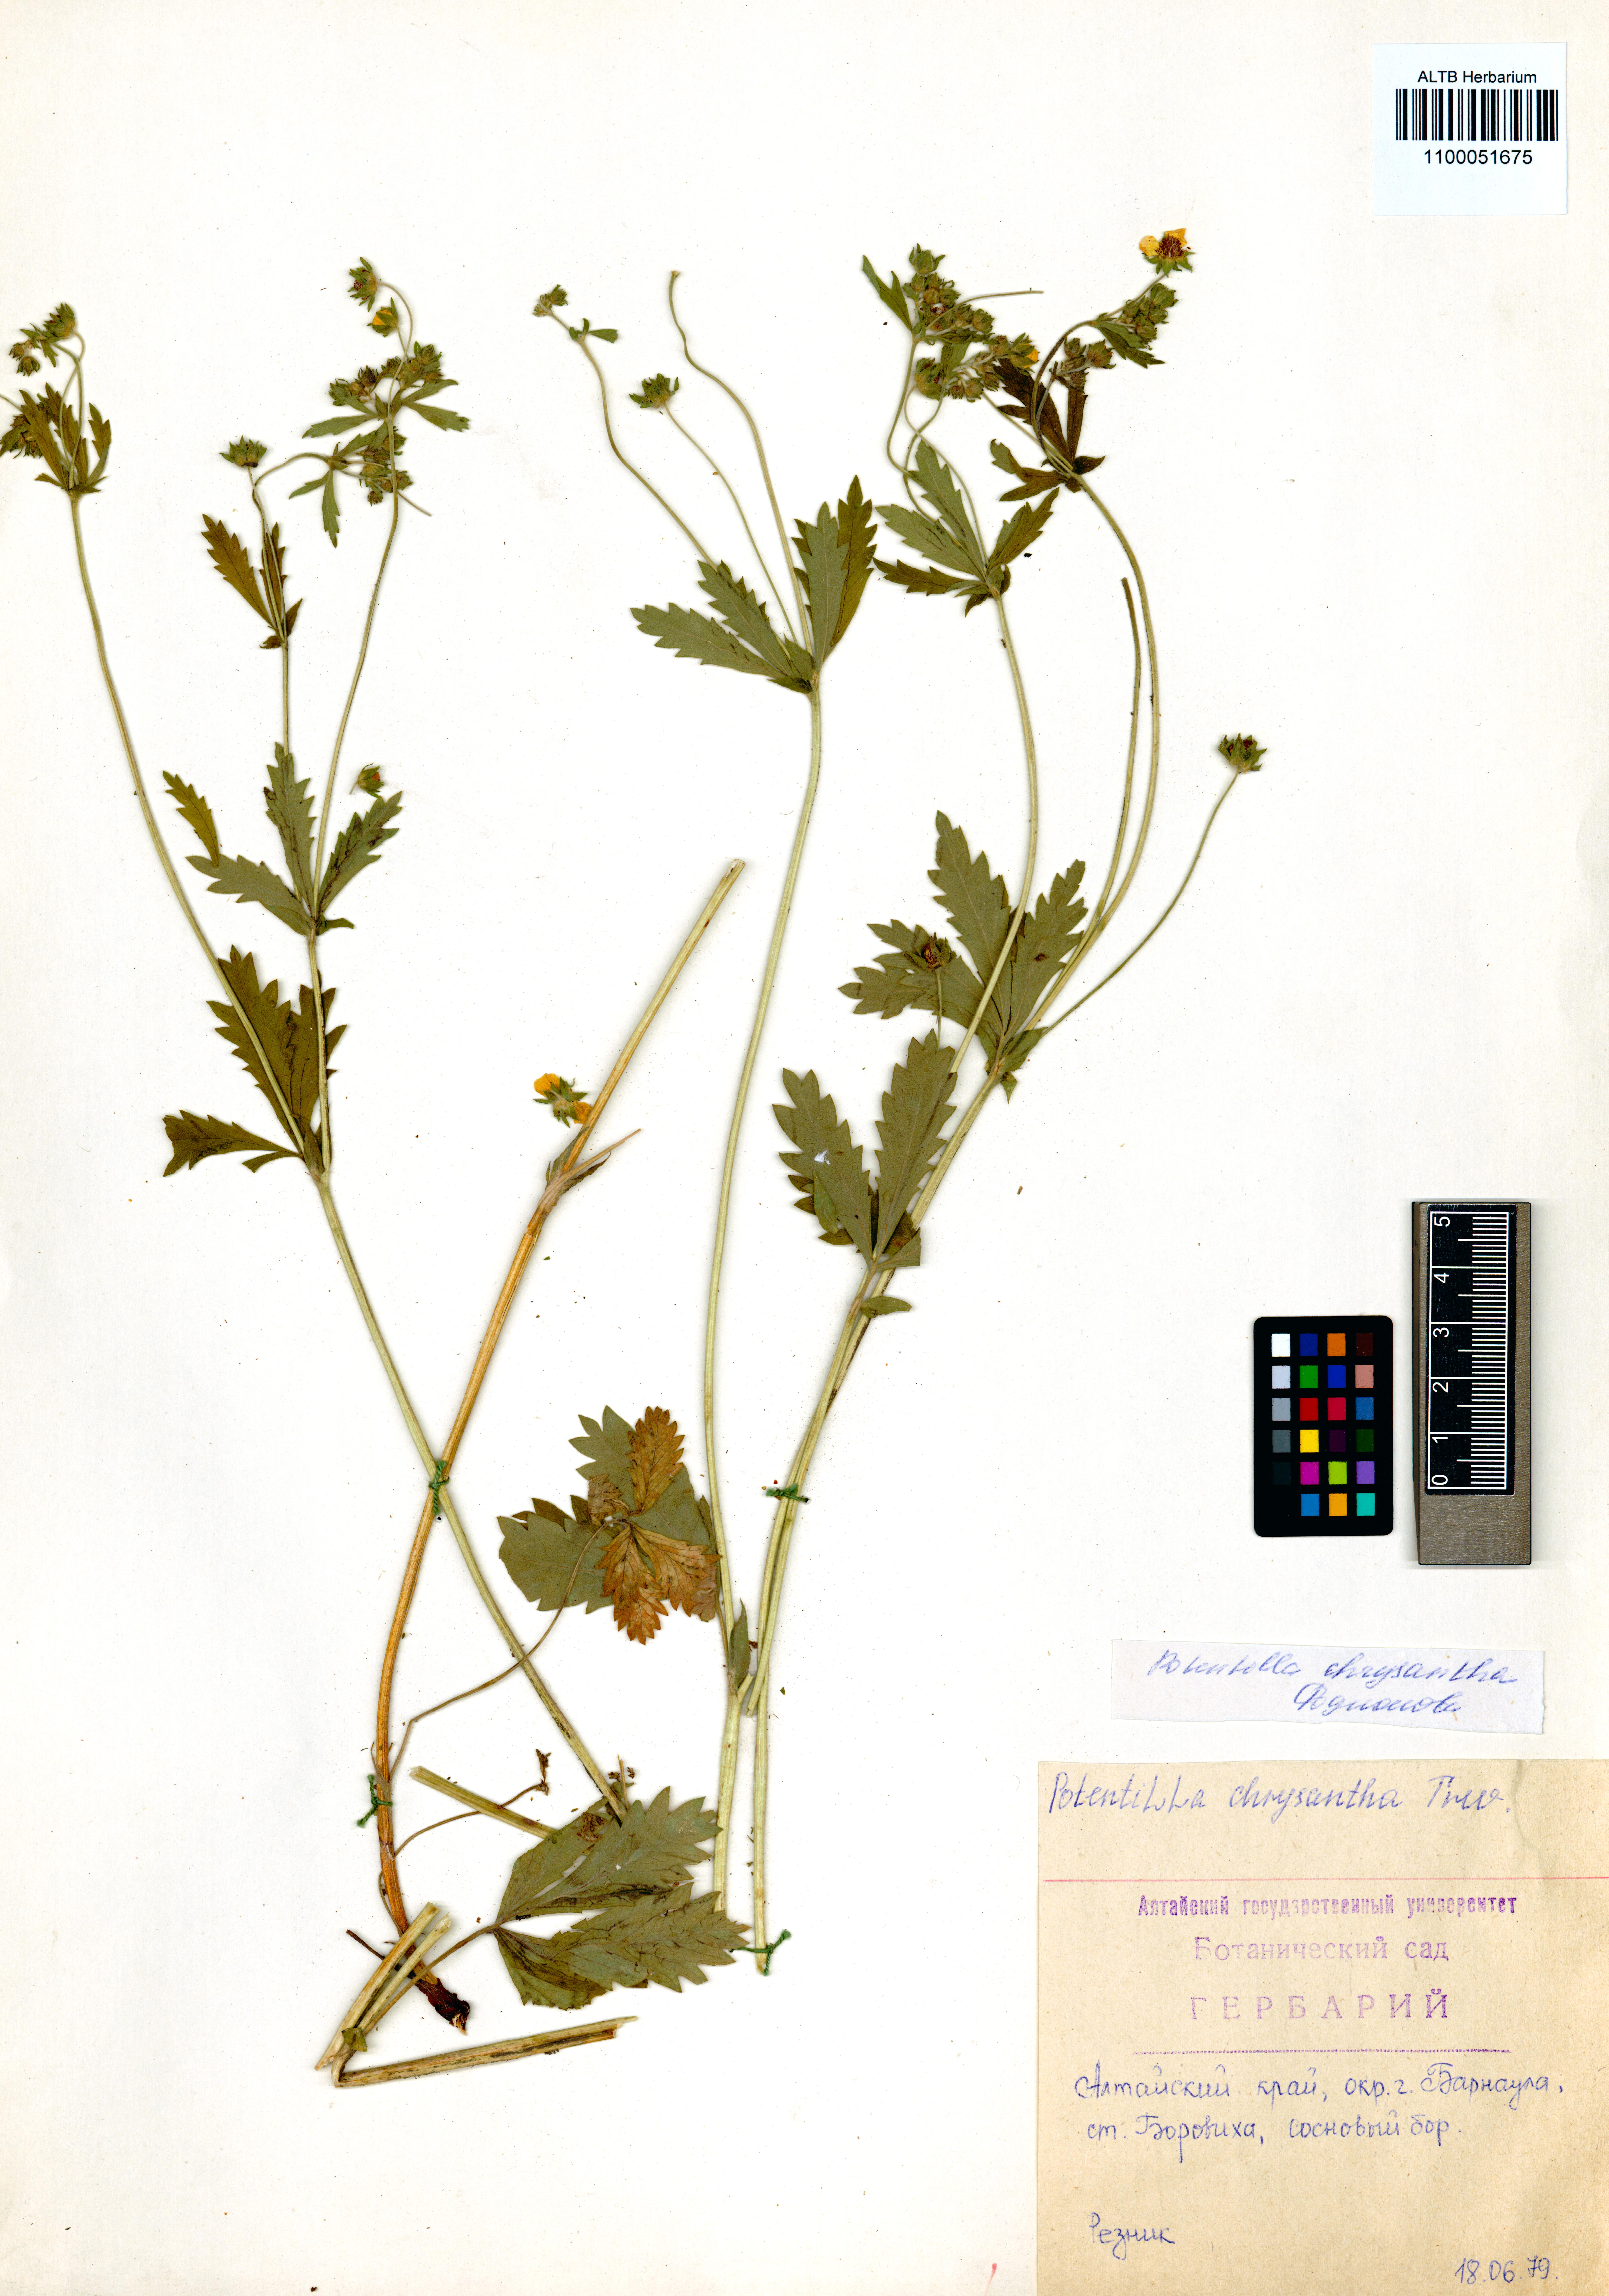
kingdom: Plantae
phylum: Tracheophyta
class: Magnoliopsida
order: Rosales
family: Rosaceae
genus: Potentilla
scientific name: Potentilla chrysantha
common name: Thuringian cinquefoil
